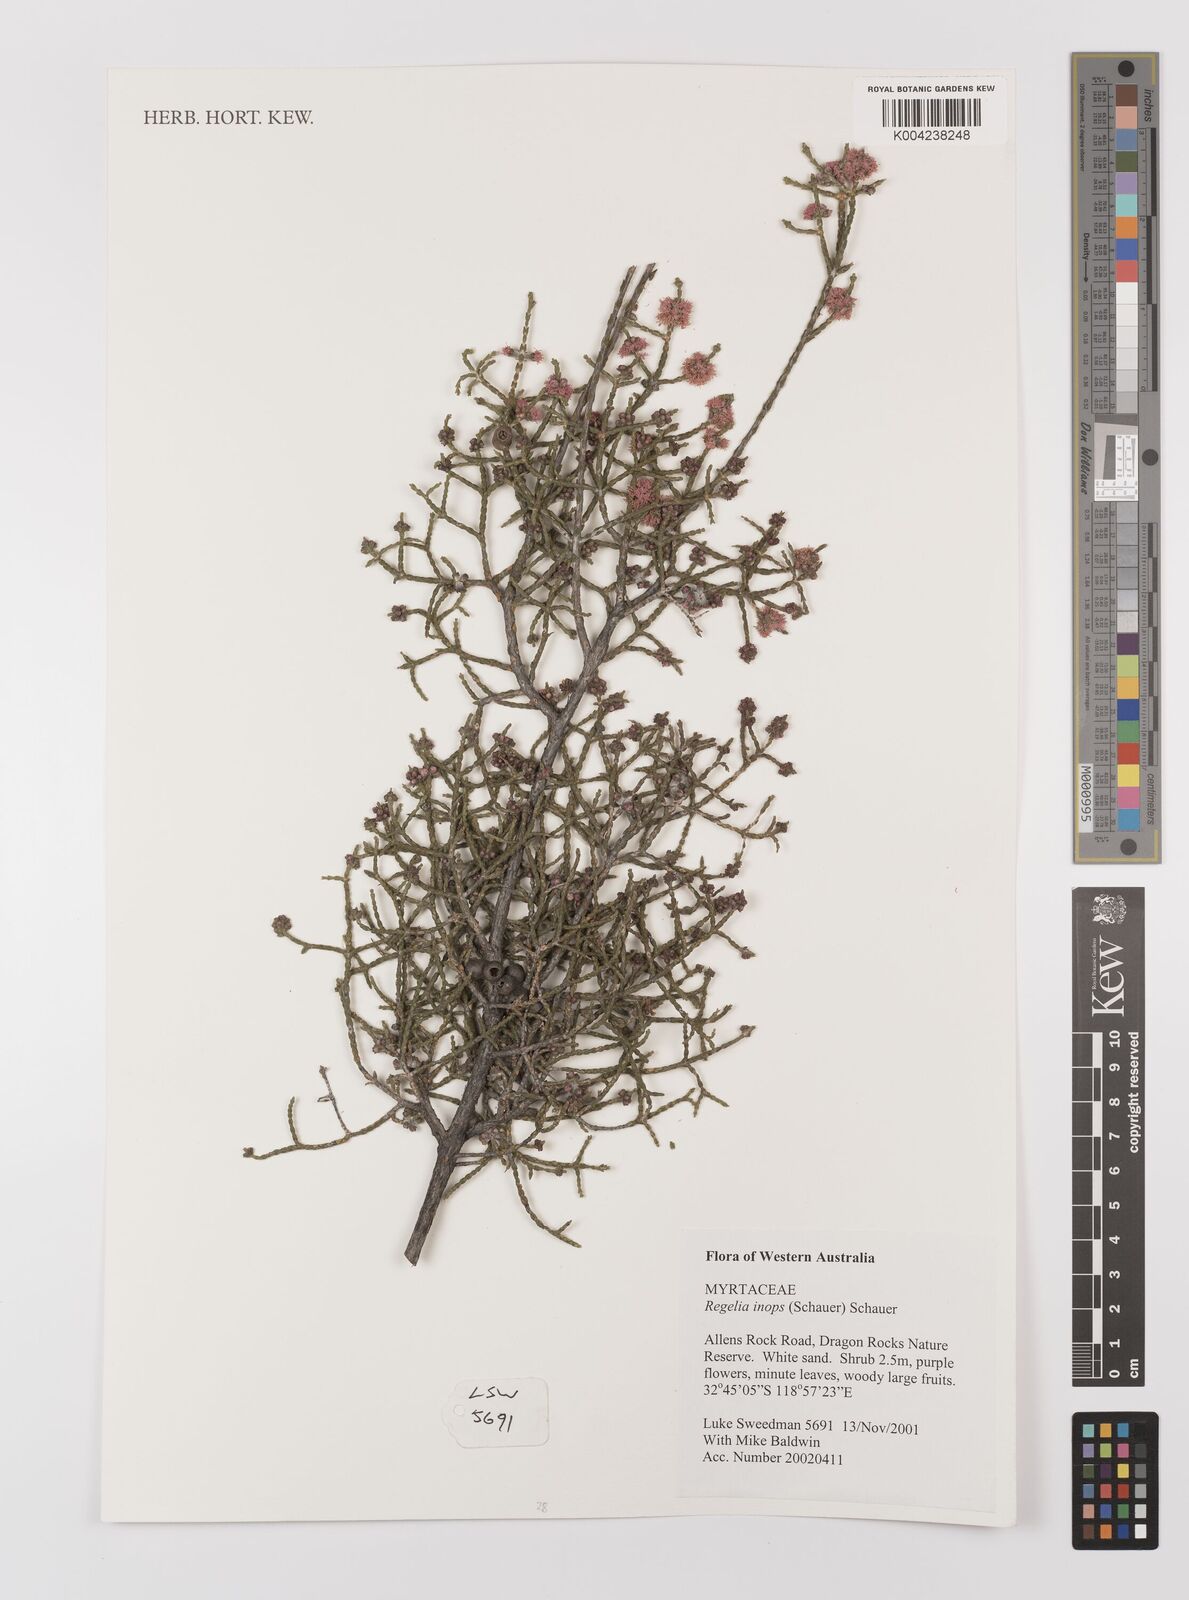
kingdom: Plantae
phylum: Tracheophyta
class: Magnoliopsida
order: Myrtales
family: Myrtaceae
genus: Melaleuca
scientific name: Melaleuca inops
